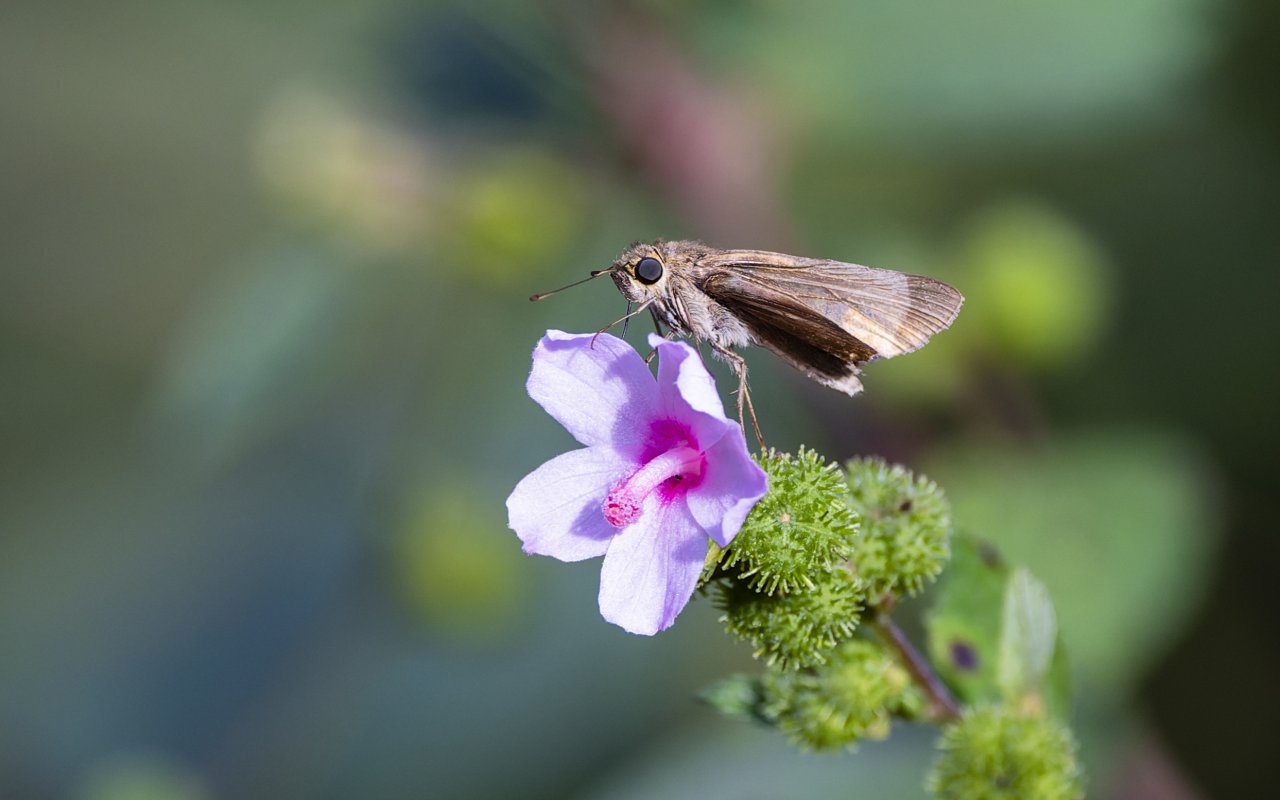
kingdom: Animalia
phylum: Arthropoda
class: Insecta
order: Lepidoptera
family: Hesperiidae
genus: Panoquina
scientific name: Panoquina ocola
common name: Ocola Skipper
